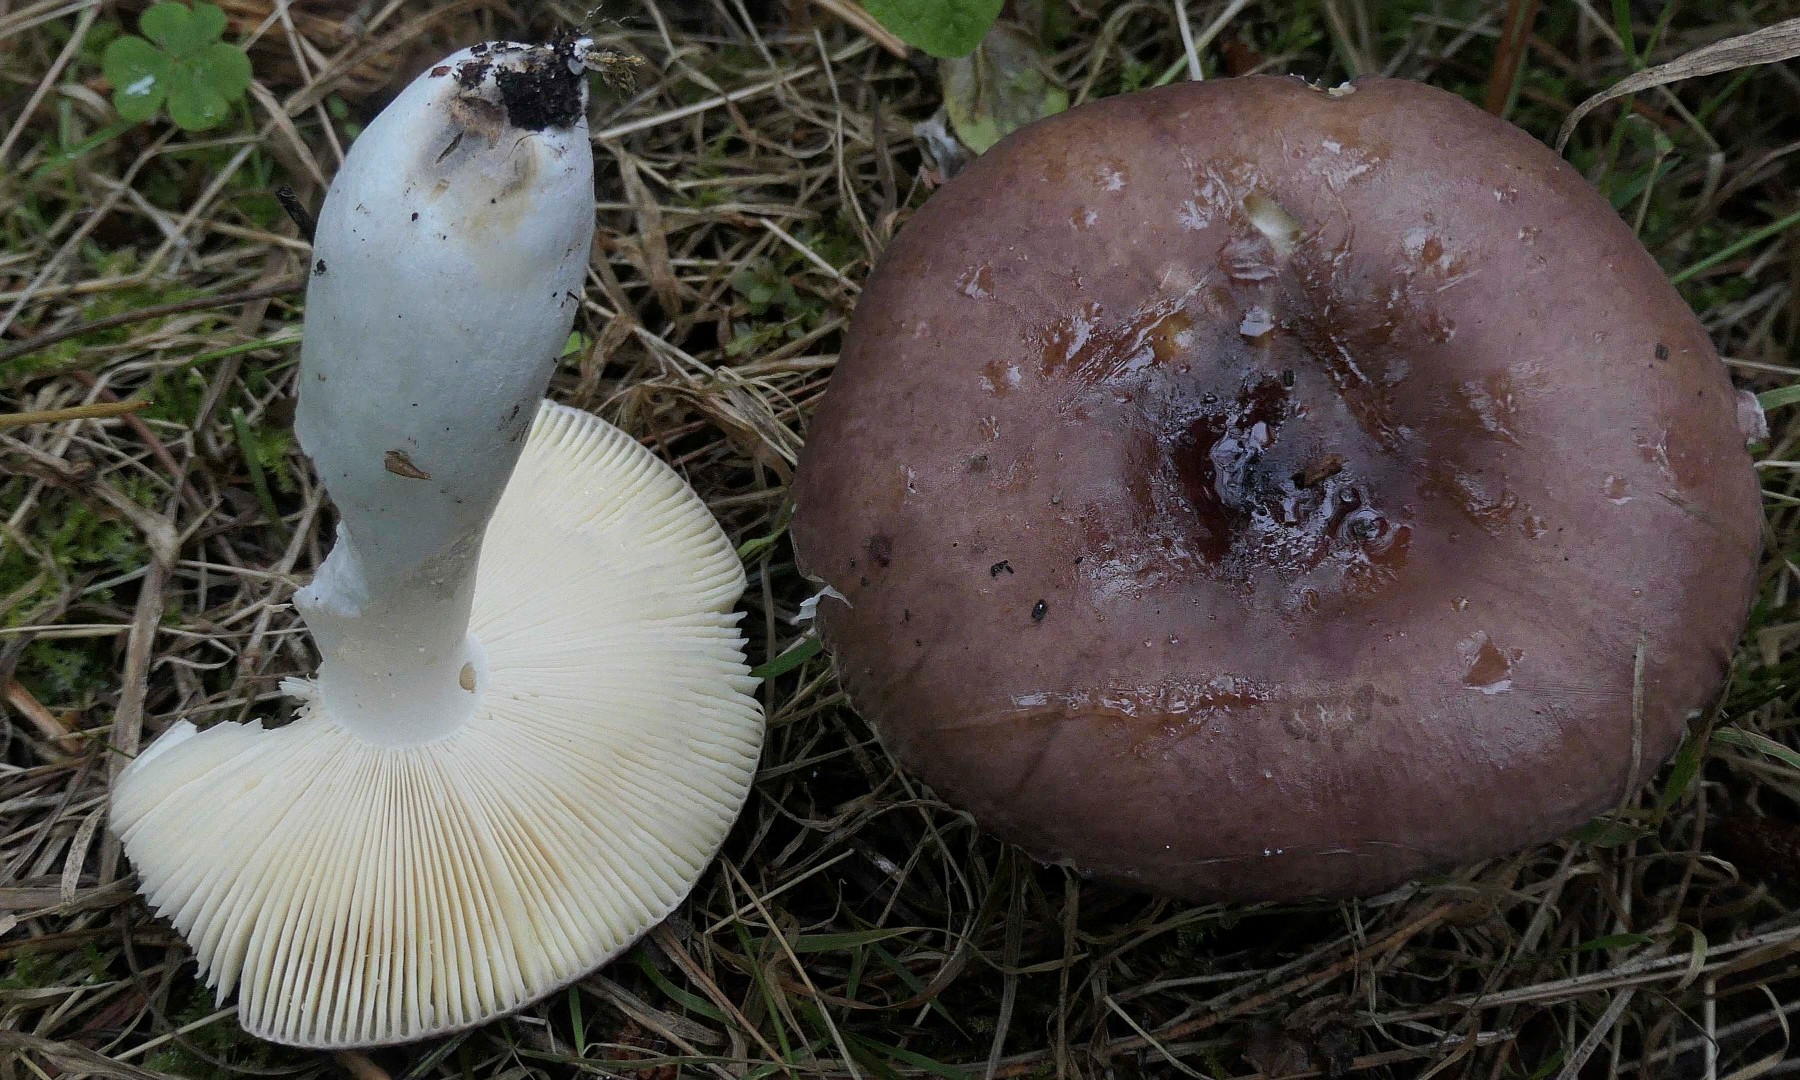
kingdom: Fungi
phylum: Basidiomycota
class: Agaricomycetes
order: Russulales
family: Russulaceae
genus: Russula
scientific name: Russula caerulea
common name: puklet skørhat
